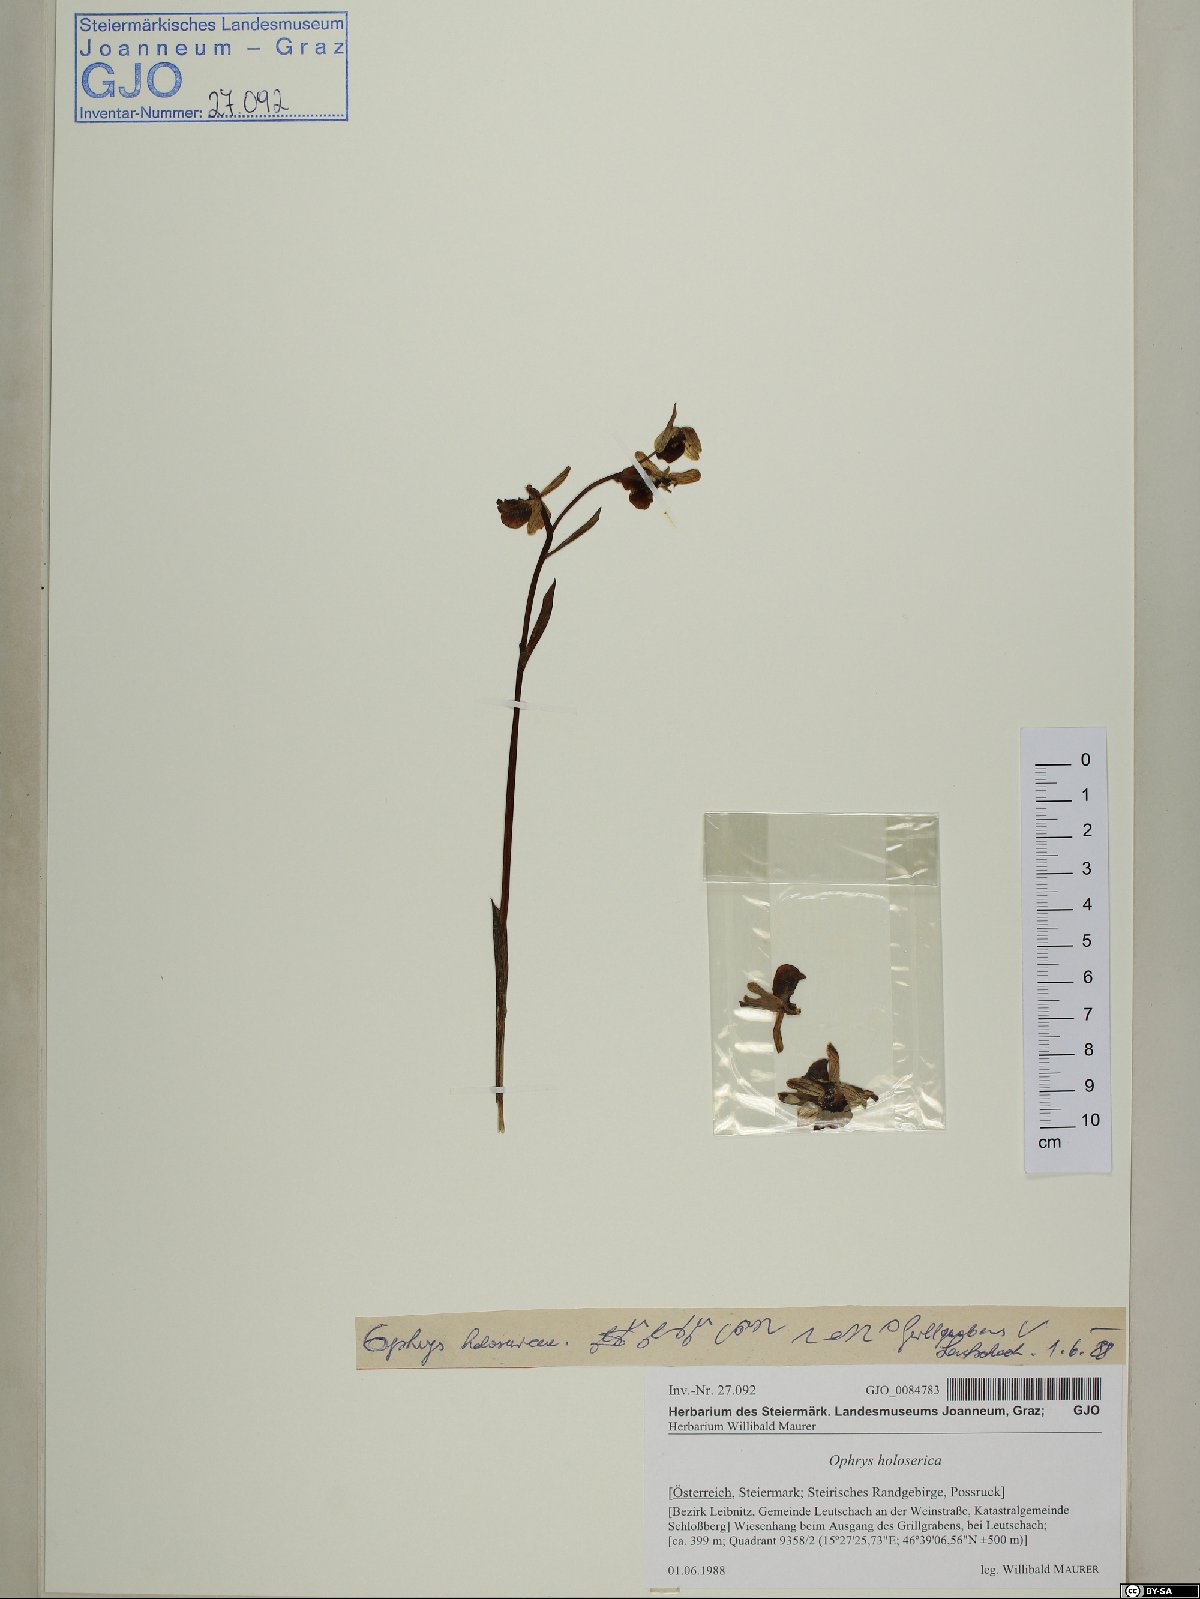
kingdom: Plantae
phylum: Tracheophyta
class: Liliopsida
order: Asparagales
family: Orchidaceae
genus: Ophrys
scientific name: Ophrys holosericea
